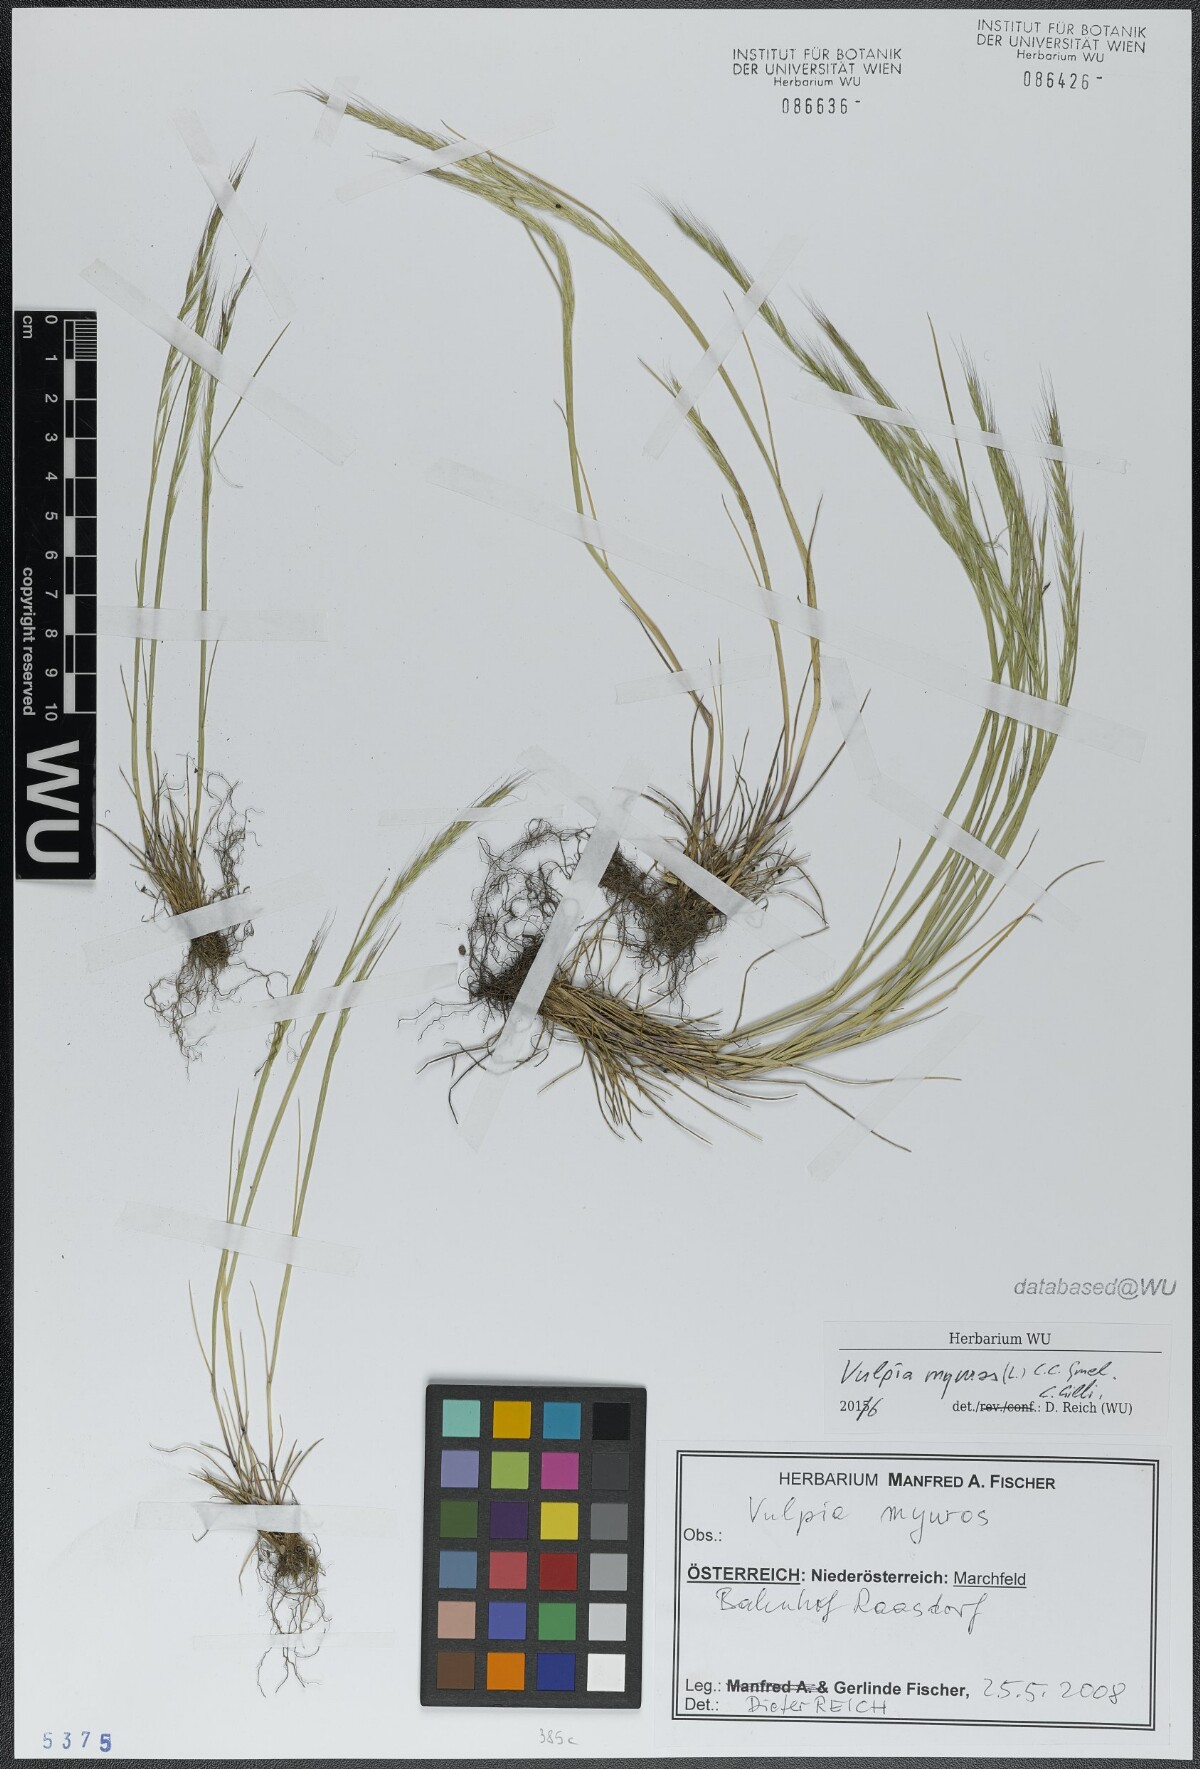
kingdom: Plantae
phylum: Tracheophyta
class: Liliopsida
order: Poales
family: Poaceae
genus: Festuca
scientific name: Festuca myuros
